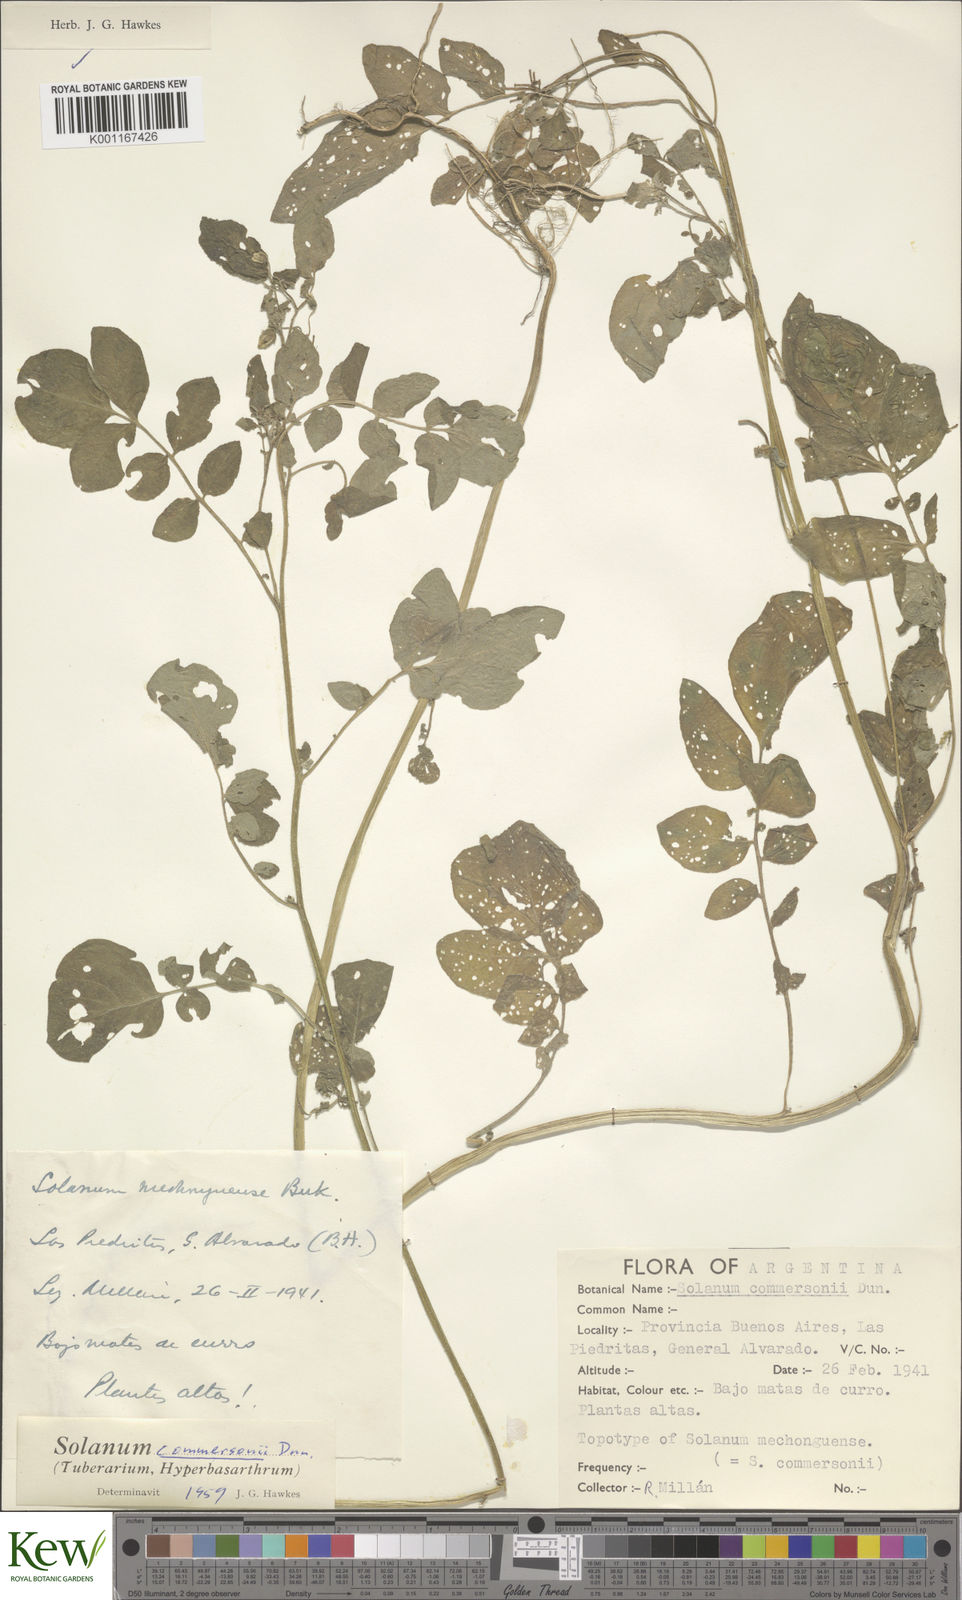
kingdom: Plantae
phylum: Tracheophyta
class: Magnoliopsida
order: Solanales
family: Solanaceae
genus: Solanum
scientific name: Solanum commersonii
